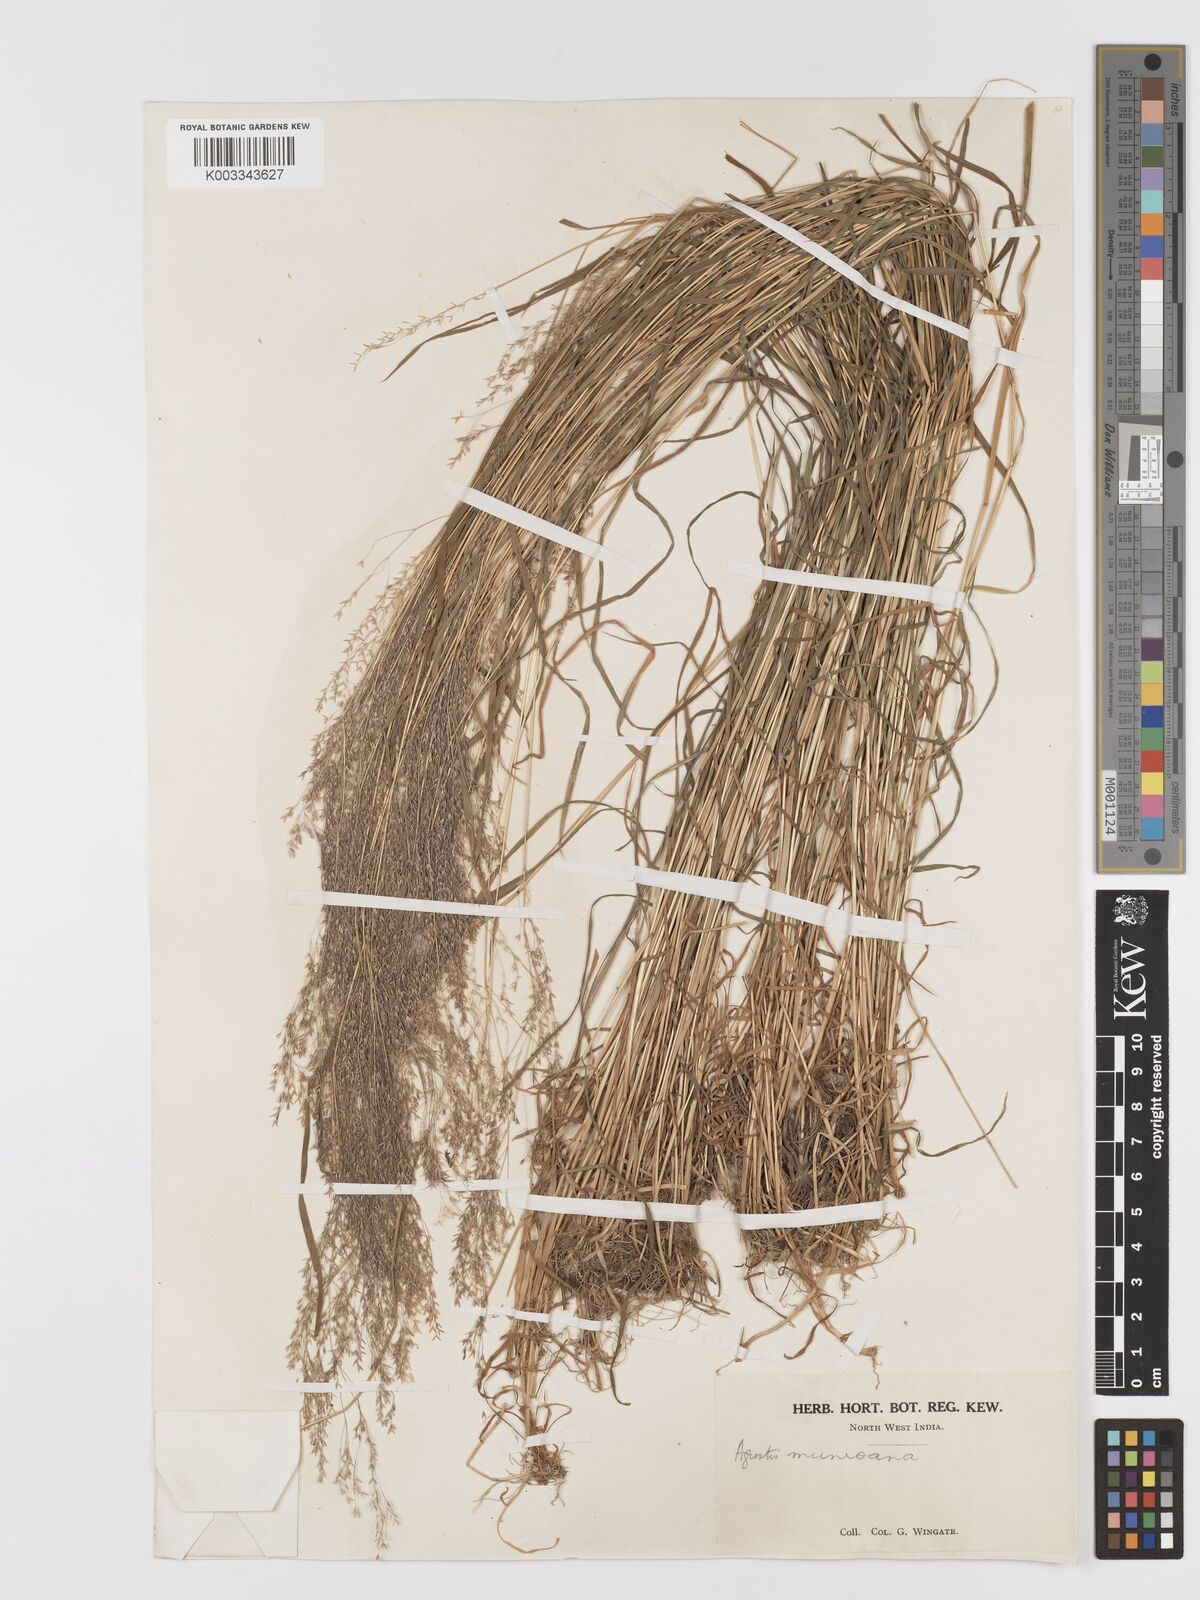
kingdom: Plantae
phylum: Tracheophyta
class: Liliopsida
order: Poales
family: Poaceae
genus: Agrostis
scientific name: Agrostis munroana
